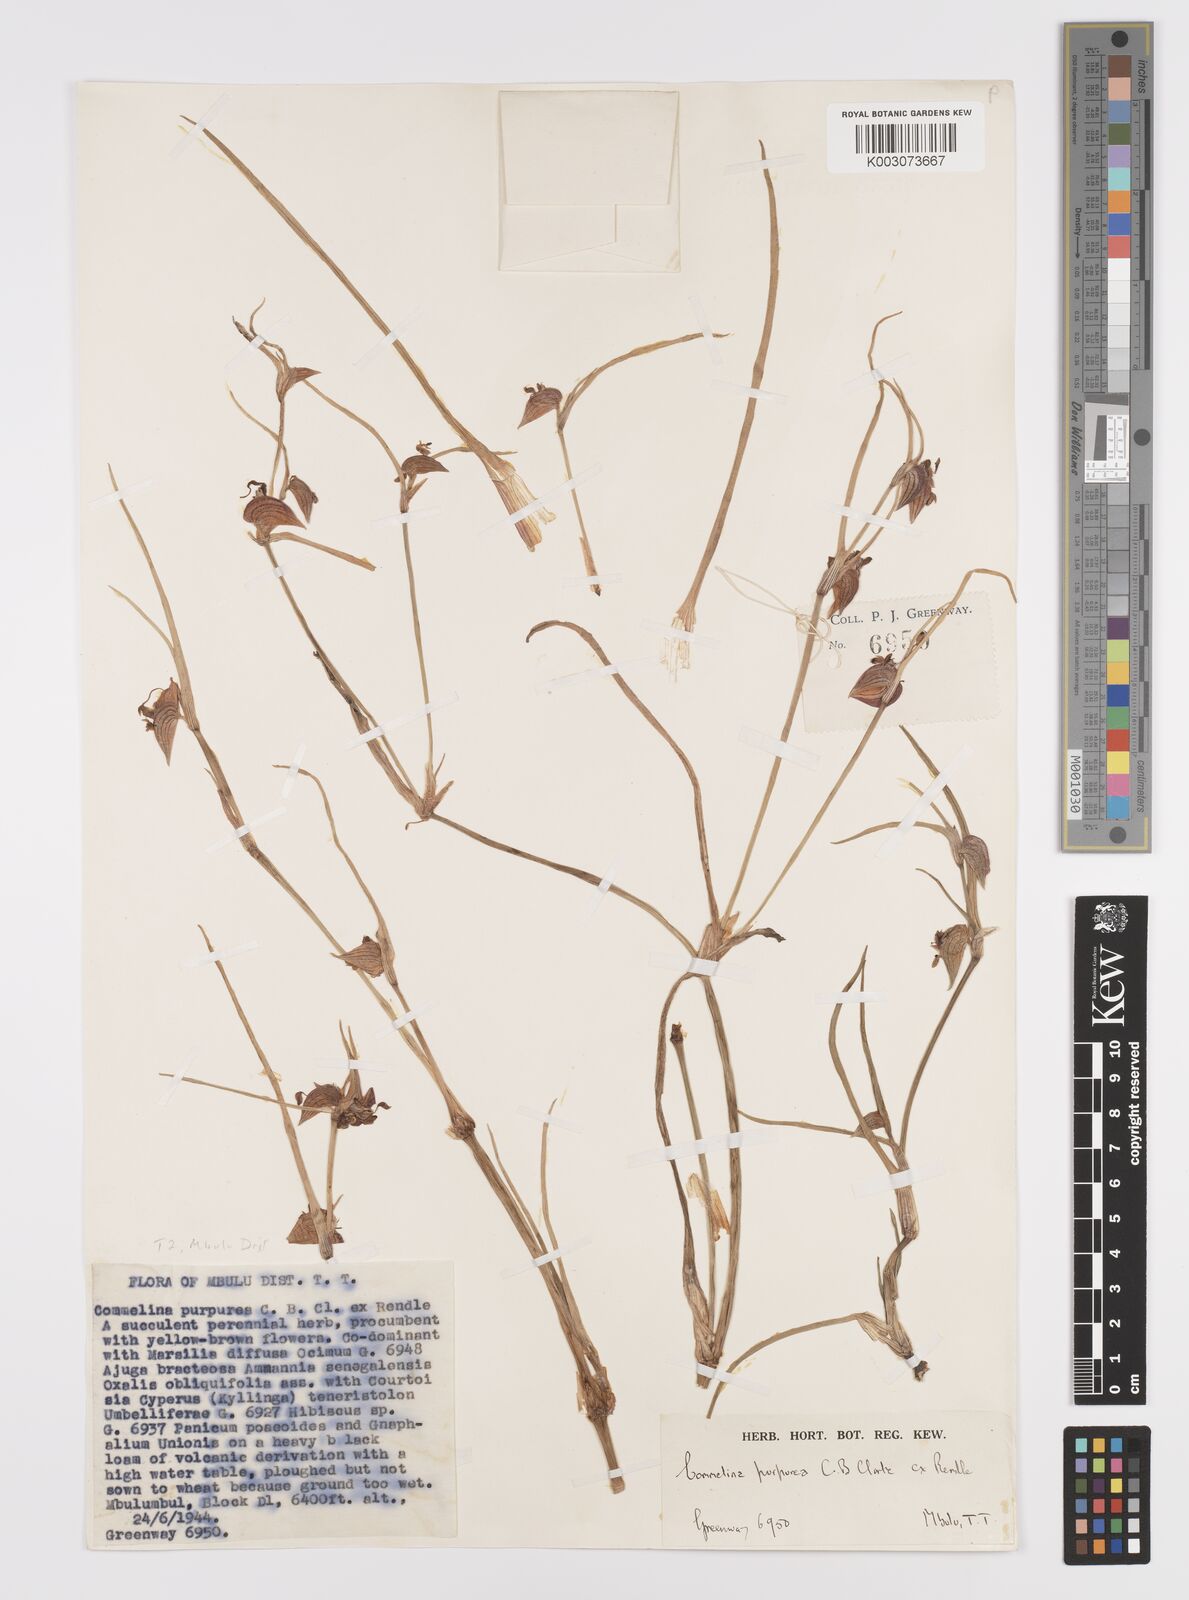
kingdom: Plantae
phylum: Tracheophyta
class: Liliopsida
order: Commelinales
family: Commelinaceae
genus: Commelina
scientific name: Commelina purpurea
